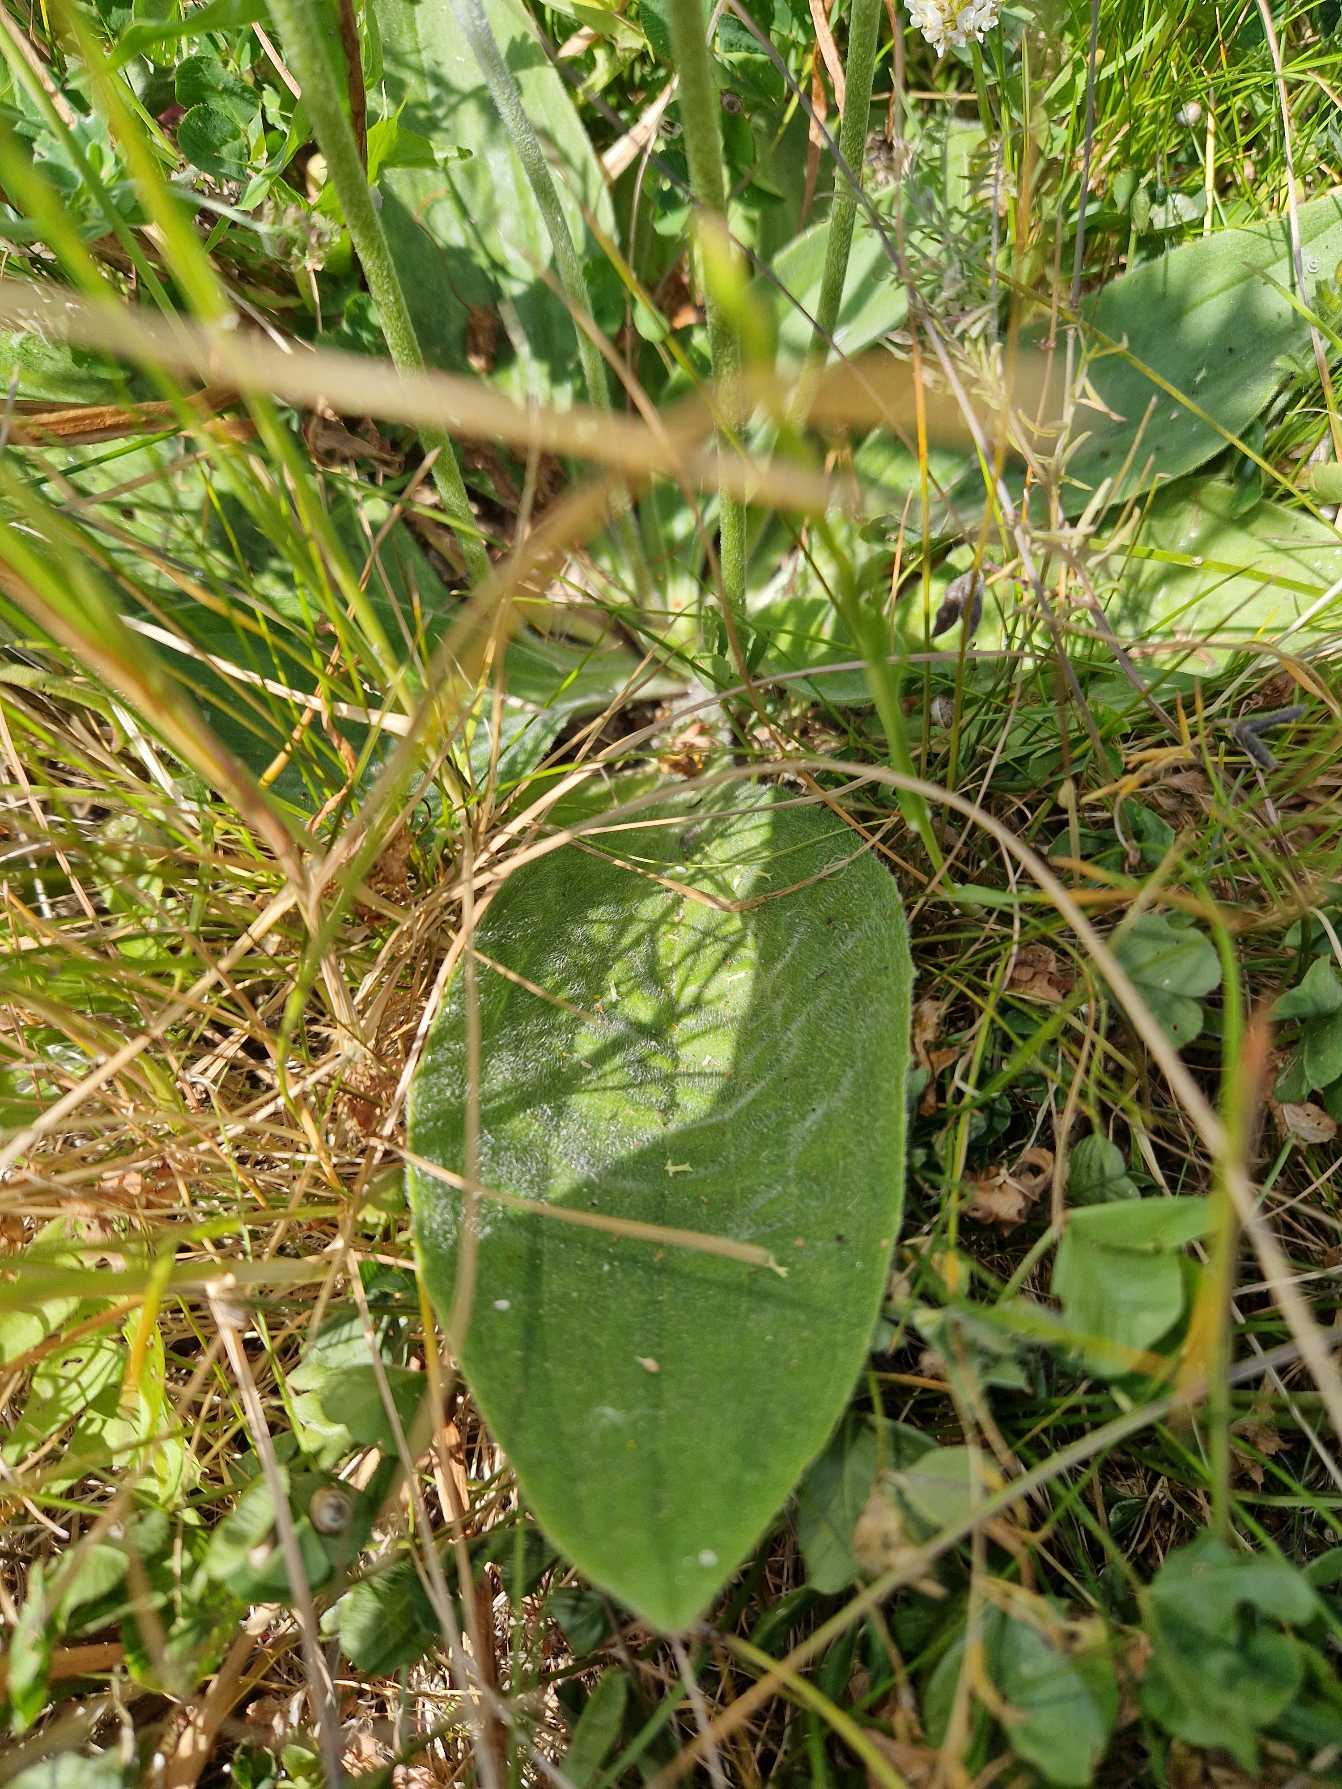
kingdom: Plantae
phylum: Tracheophyta
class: Magnoliopsida
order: Lamiales
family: Plantaginaceae
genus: Plantago
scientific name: Plantago media
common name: Dunet vejbred
